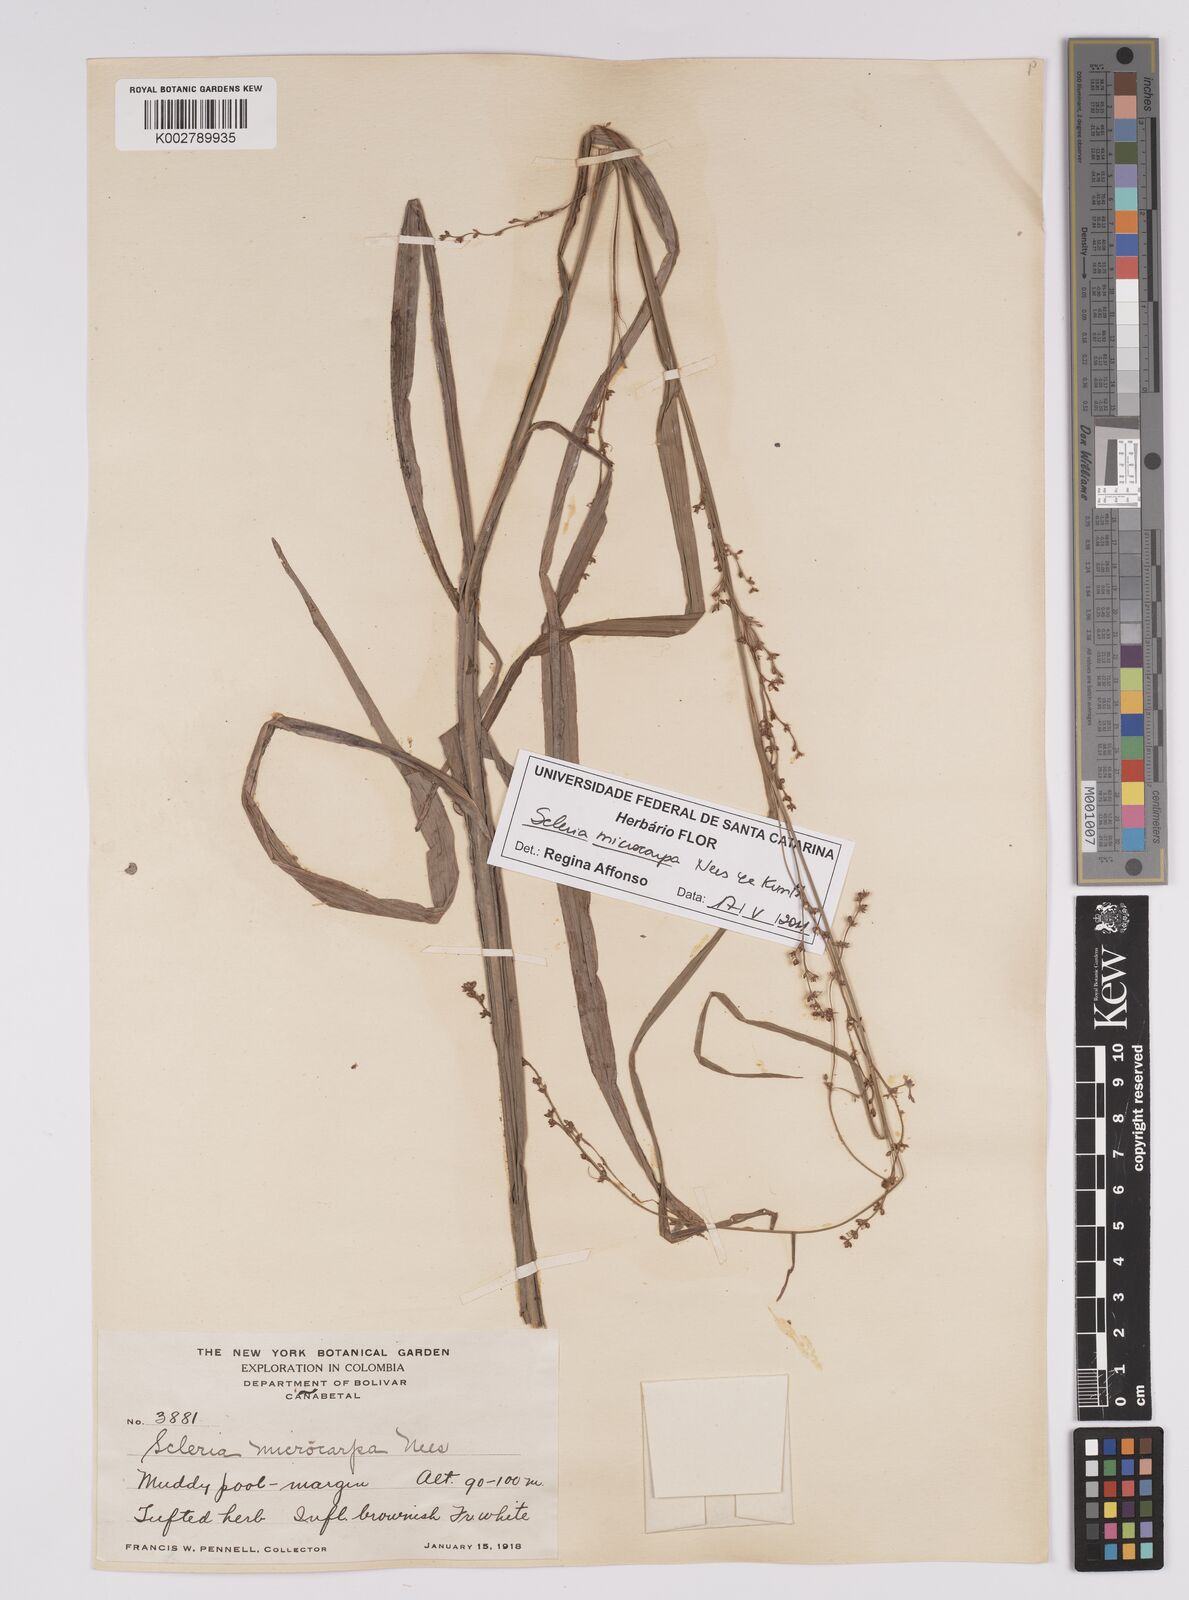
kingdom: Plantae
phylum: Tracheophyta
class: Liliopsida
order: Poales
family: Cyperaceae
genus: Scleria
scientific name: Scleria microcarpa
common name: Tropical nutrush
